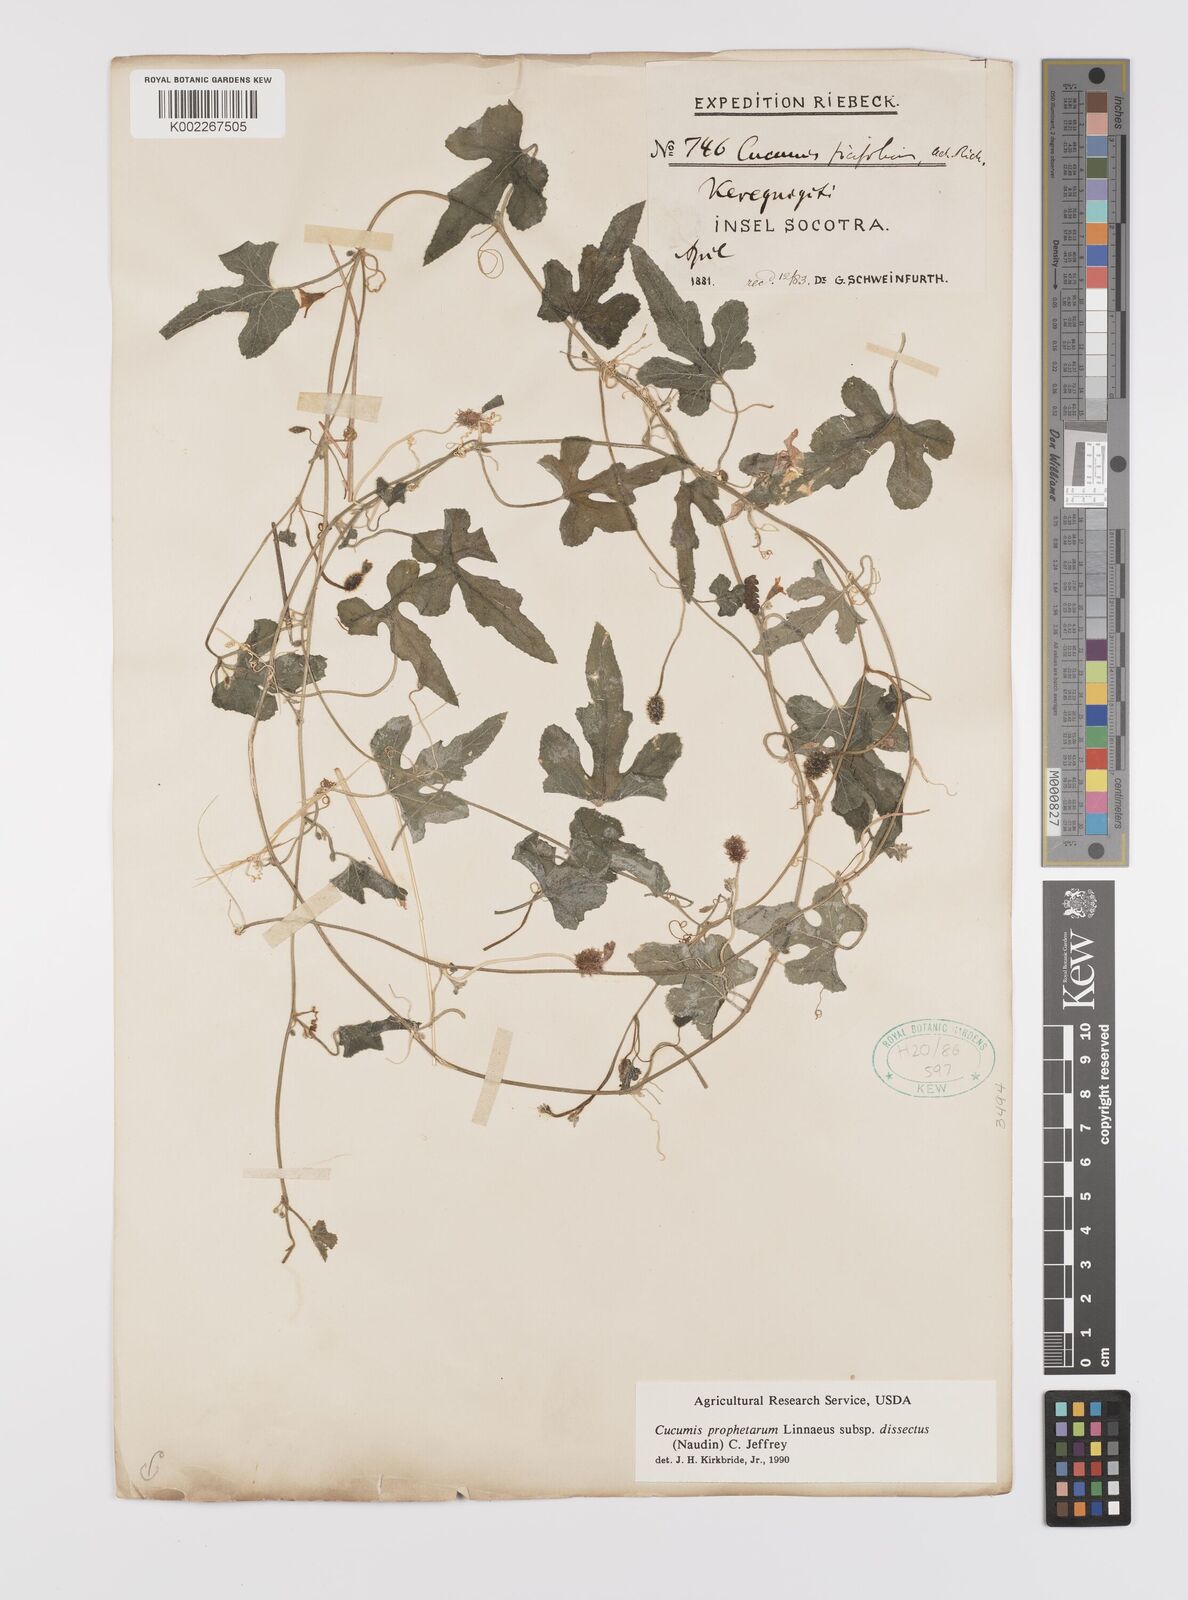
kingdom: Plantae
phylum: Tracheophyta
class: Magnoliopsida
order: Cucurbitales
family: Cucurbitaceae
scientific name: Cucurbitaceae
